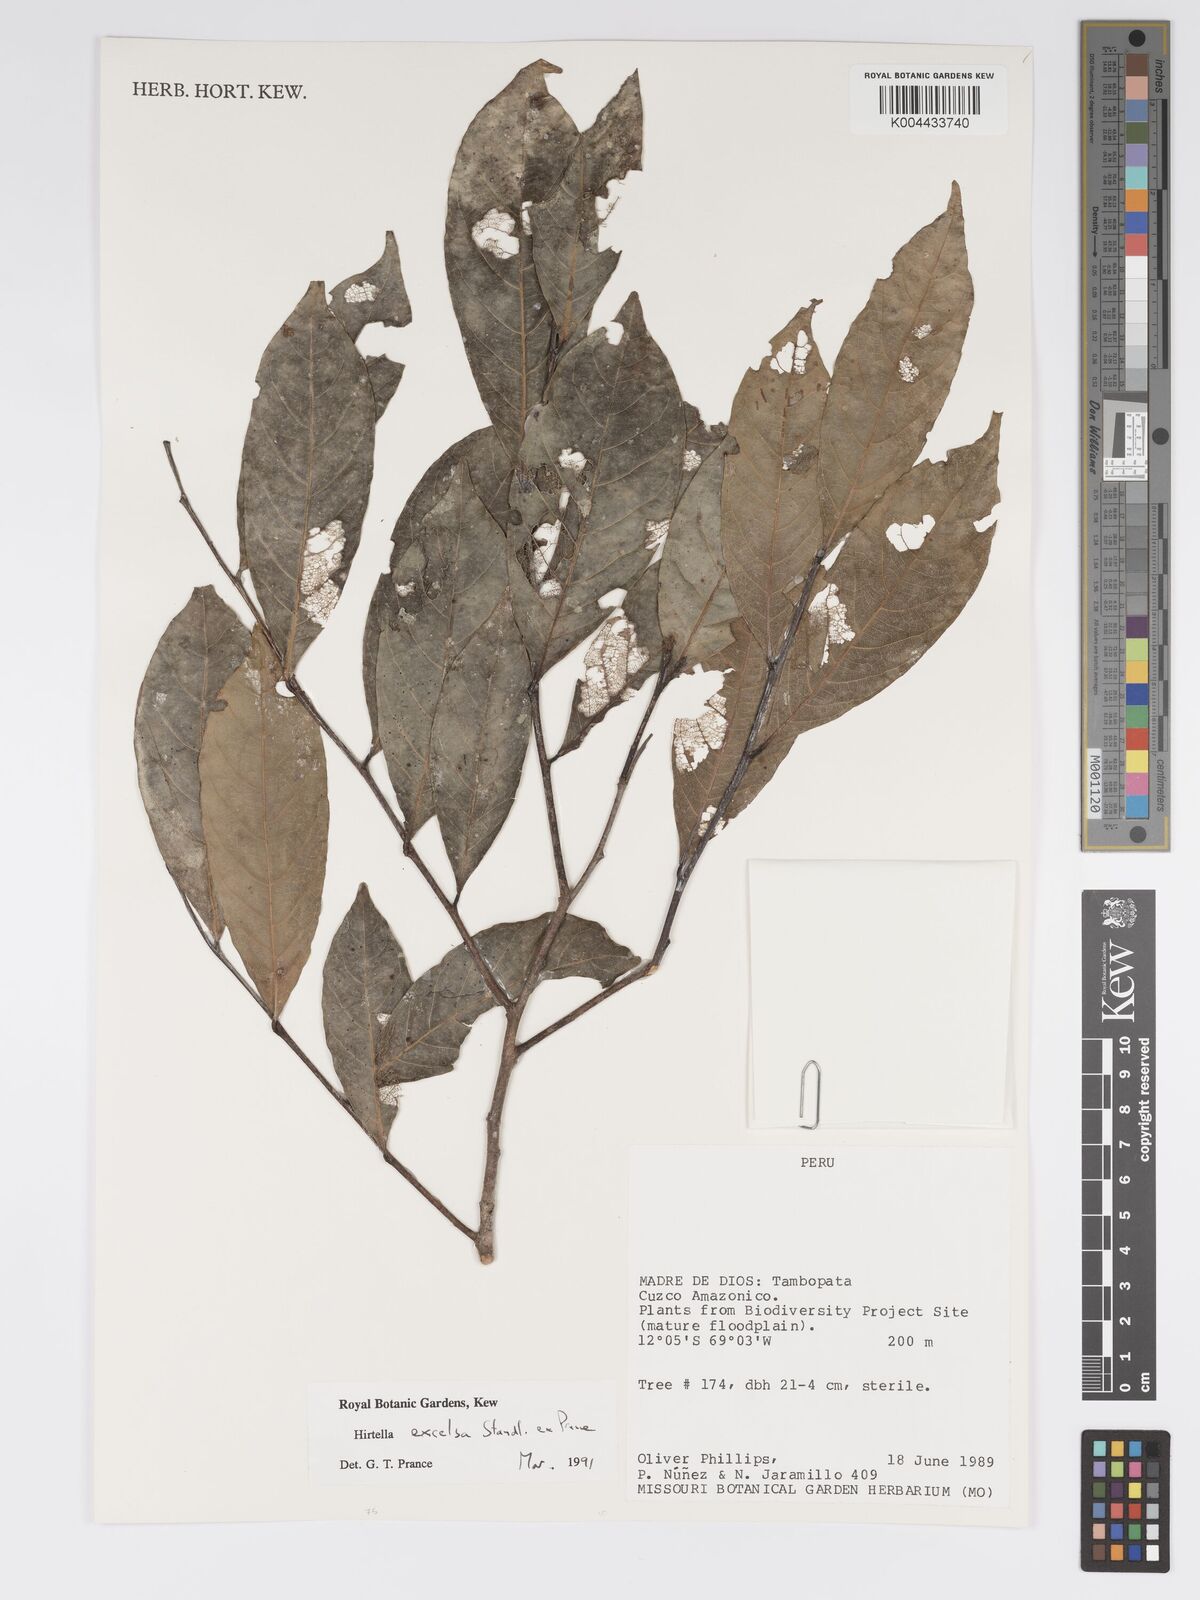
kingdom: Plantae
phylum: Tracheophyta
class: Magnoliopsida
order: Malpighiales
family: Chrysobalanaceae
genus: Hirtella
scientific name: Hirtella excelsa
